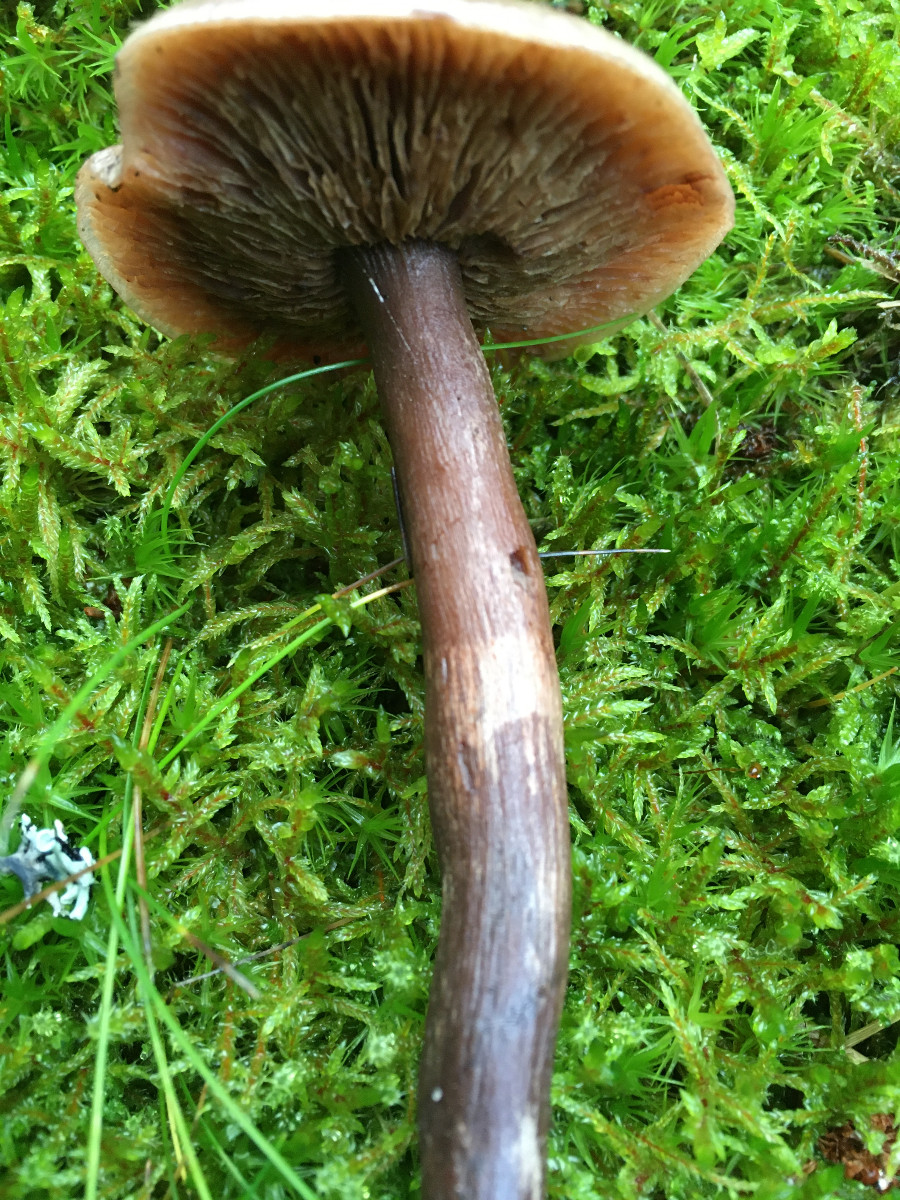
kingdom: Fungi
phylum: Basidiomycota
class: Agaricomycetes
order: Agaricales
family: Tricholomataceae
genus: Tricholoma
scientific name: Tricholoma
